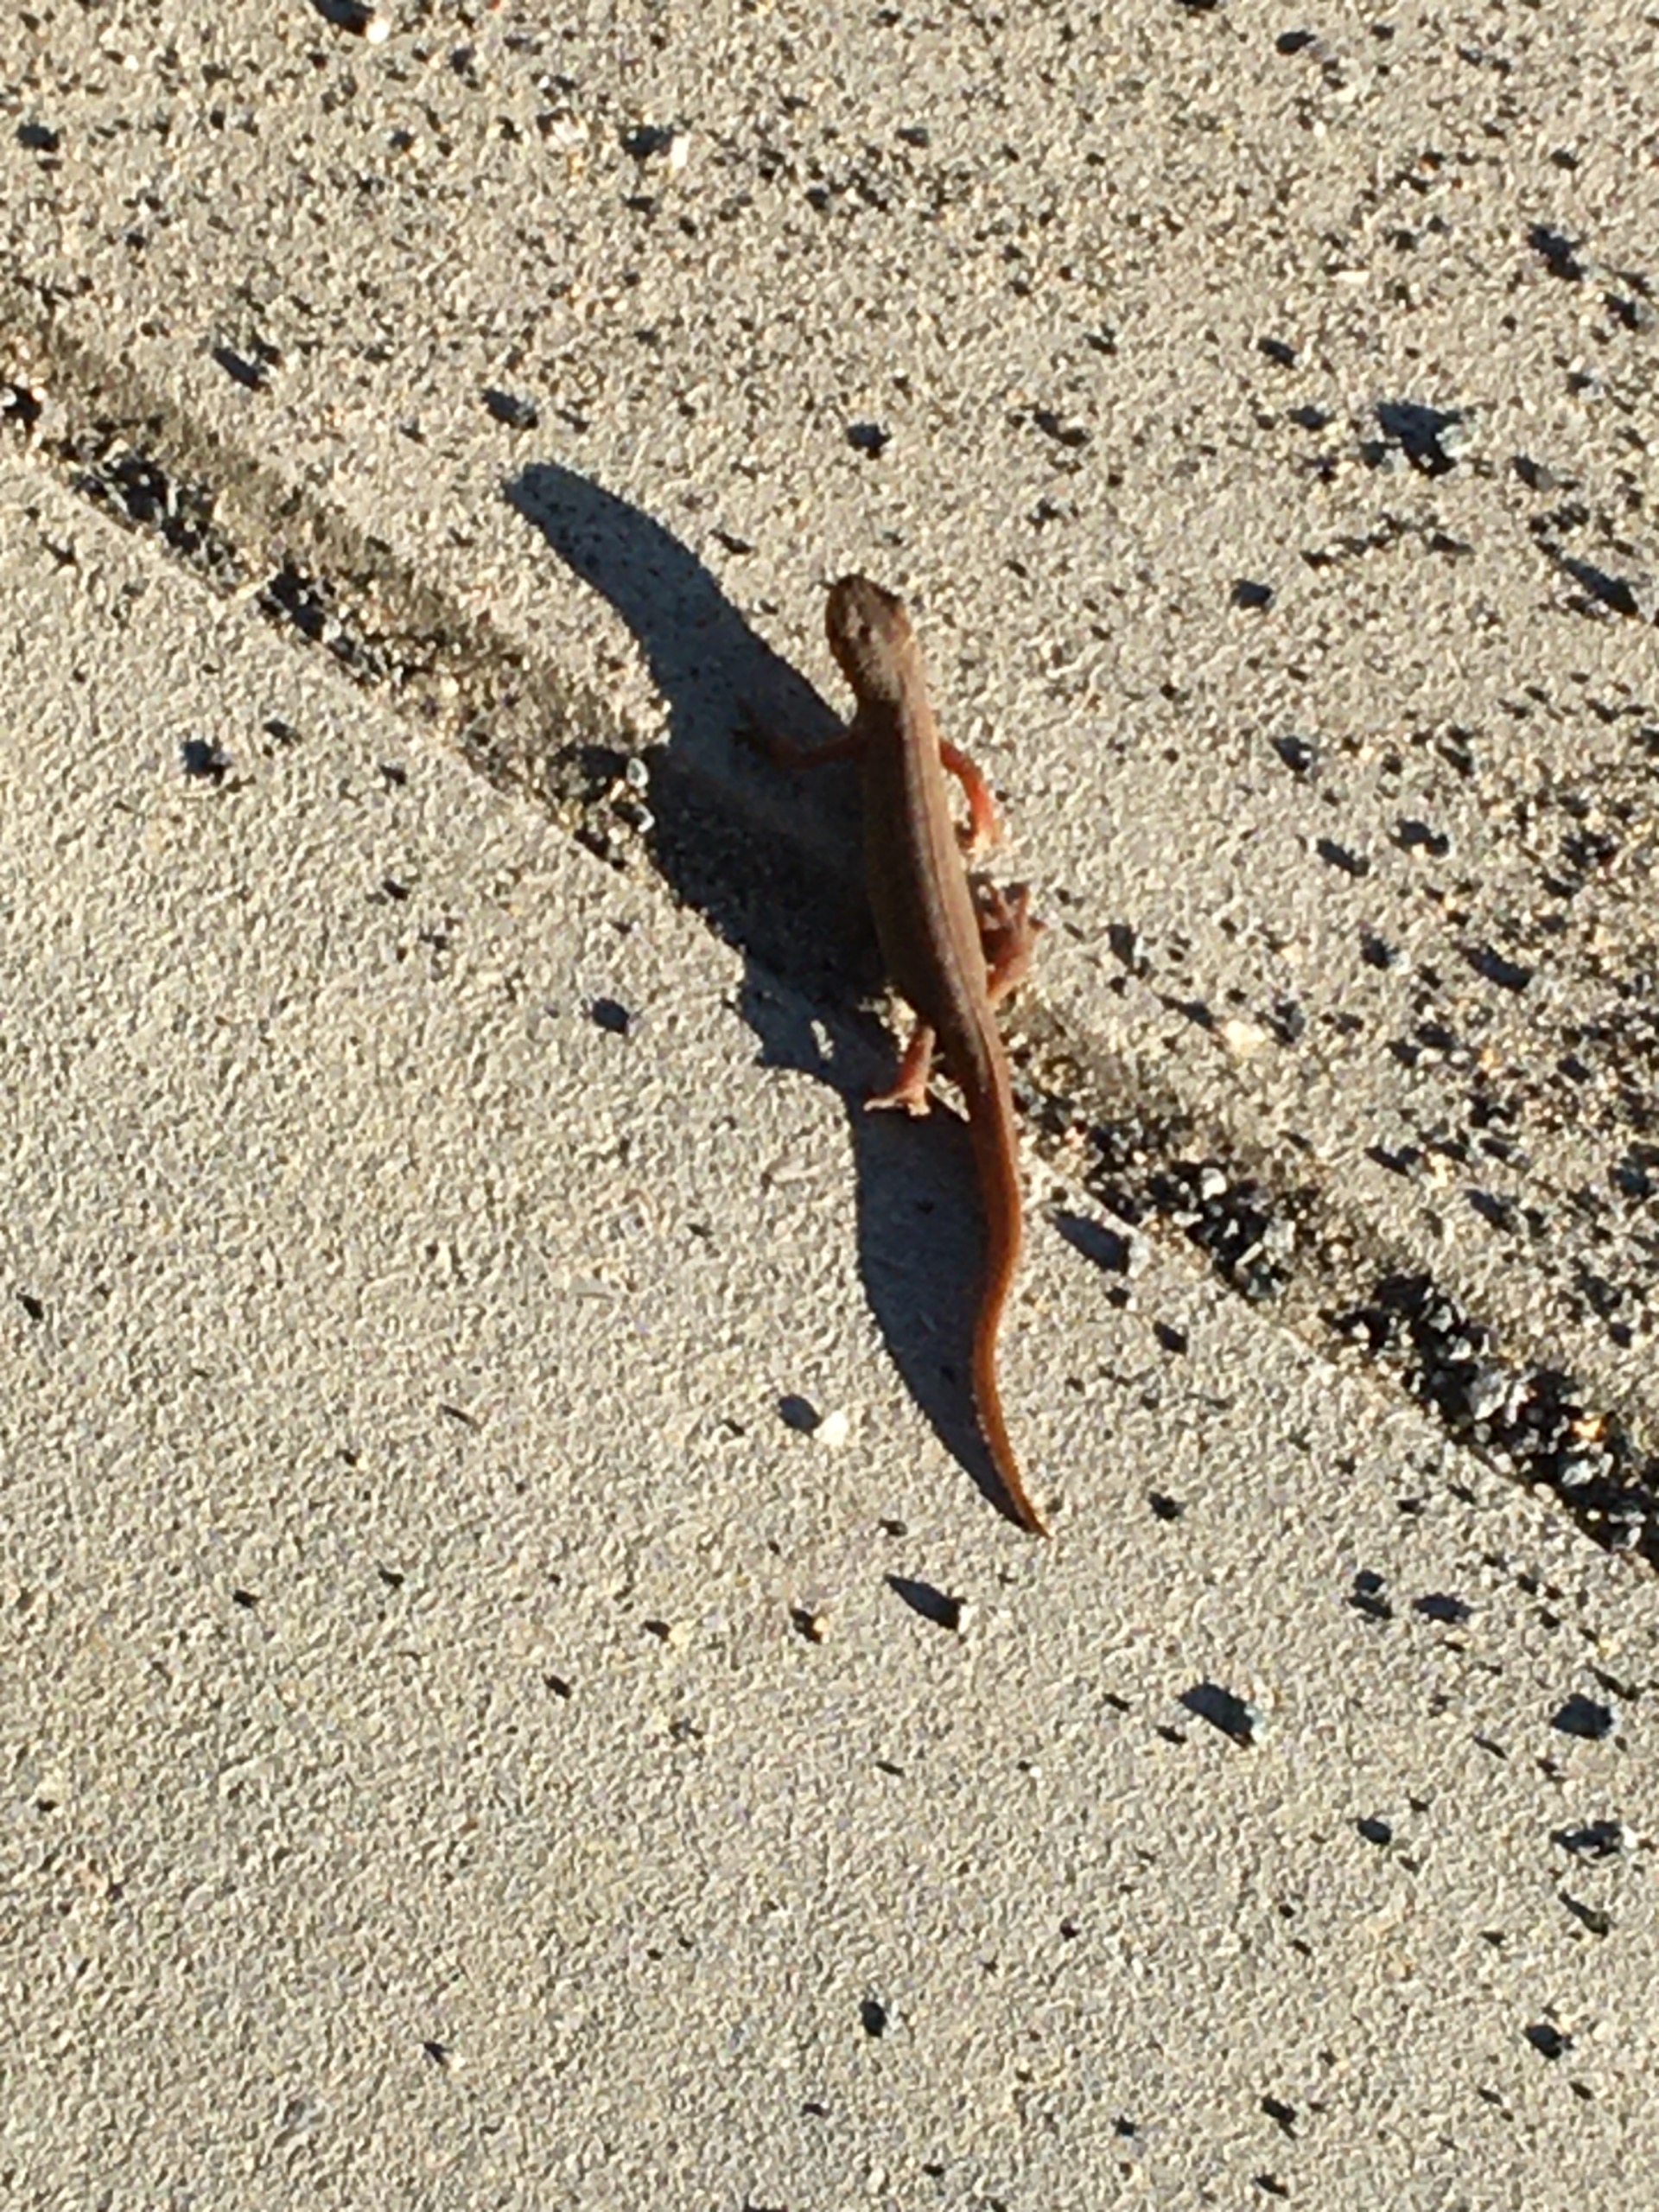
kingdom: Animalia
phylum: Chordata
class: Amphibia
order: Caudata
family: Salamandridae
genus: Lissotriton
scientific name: Lissotriton vulgaris
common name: Lille vandsalamander
